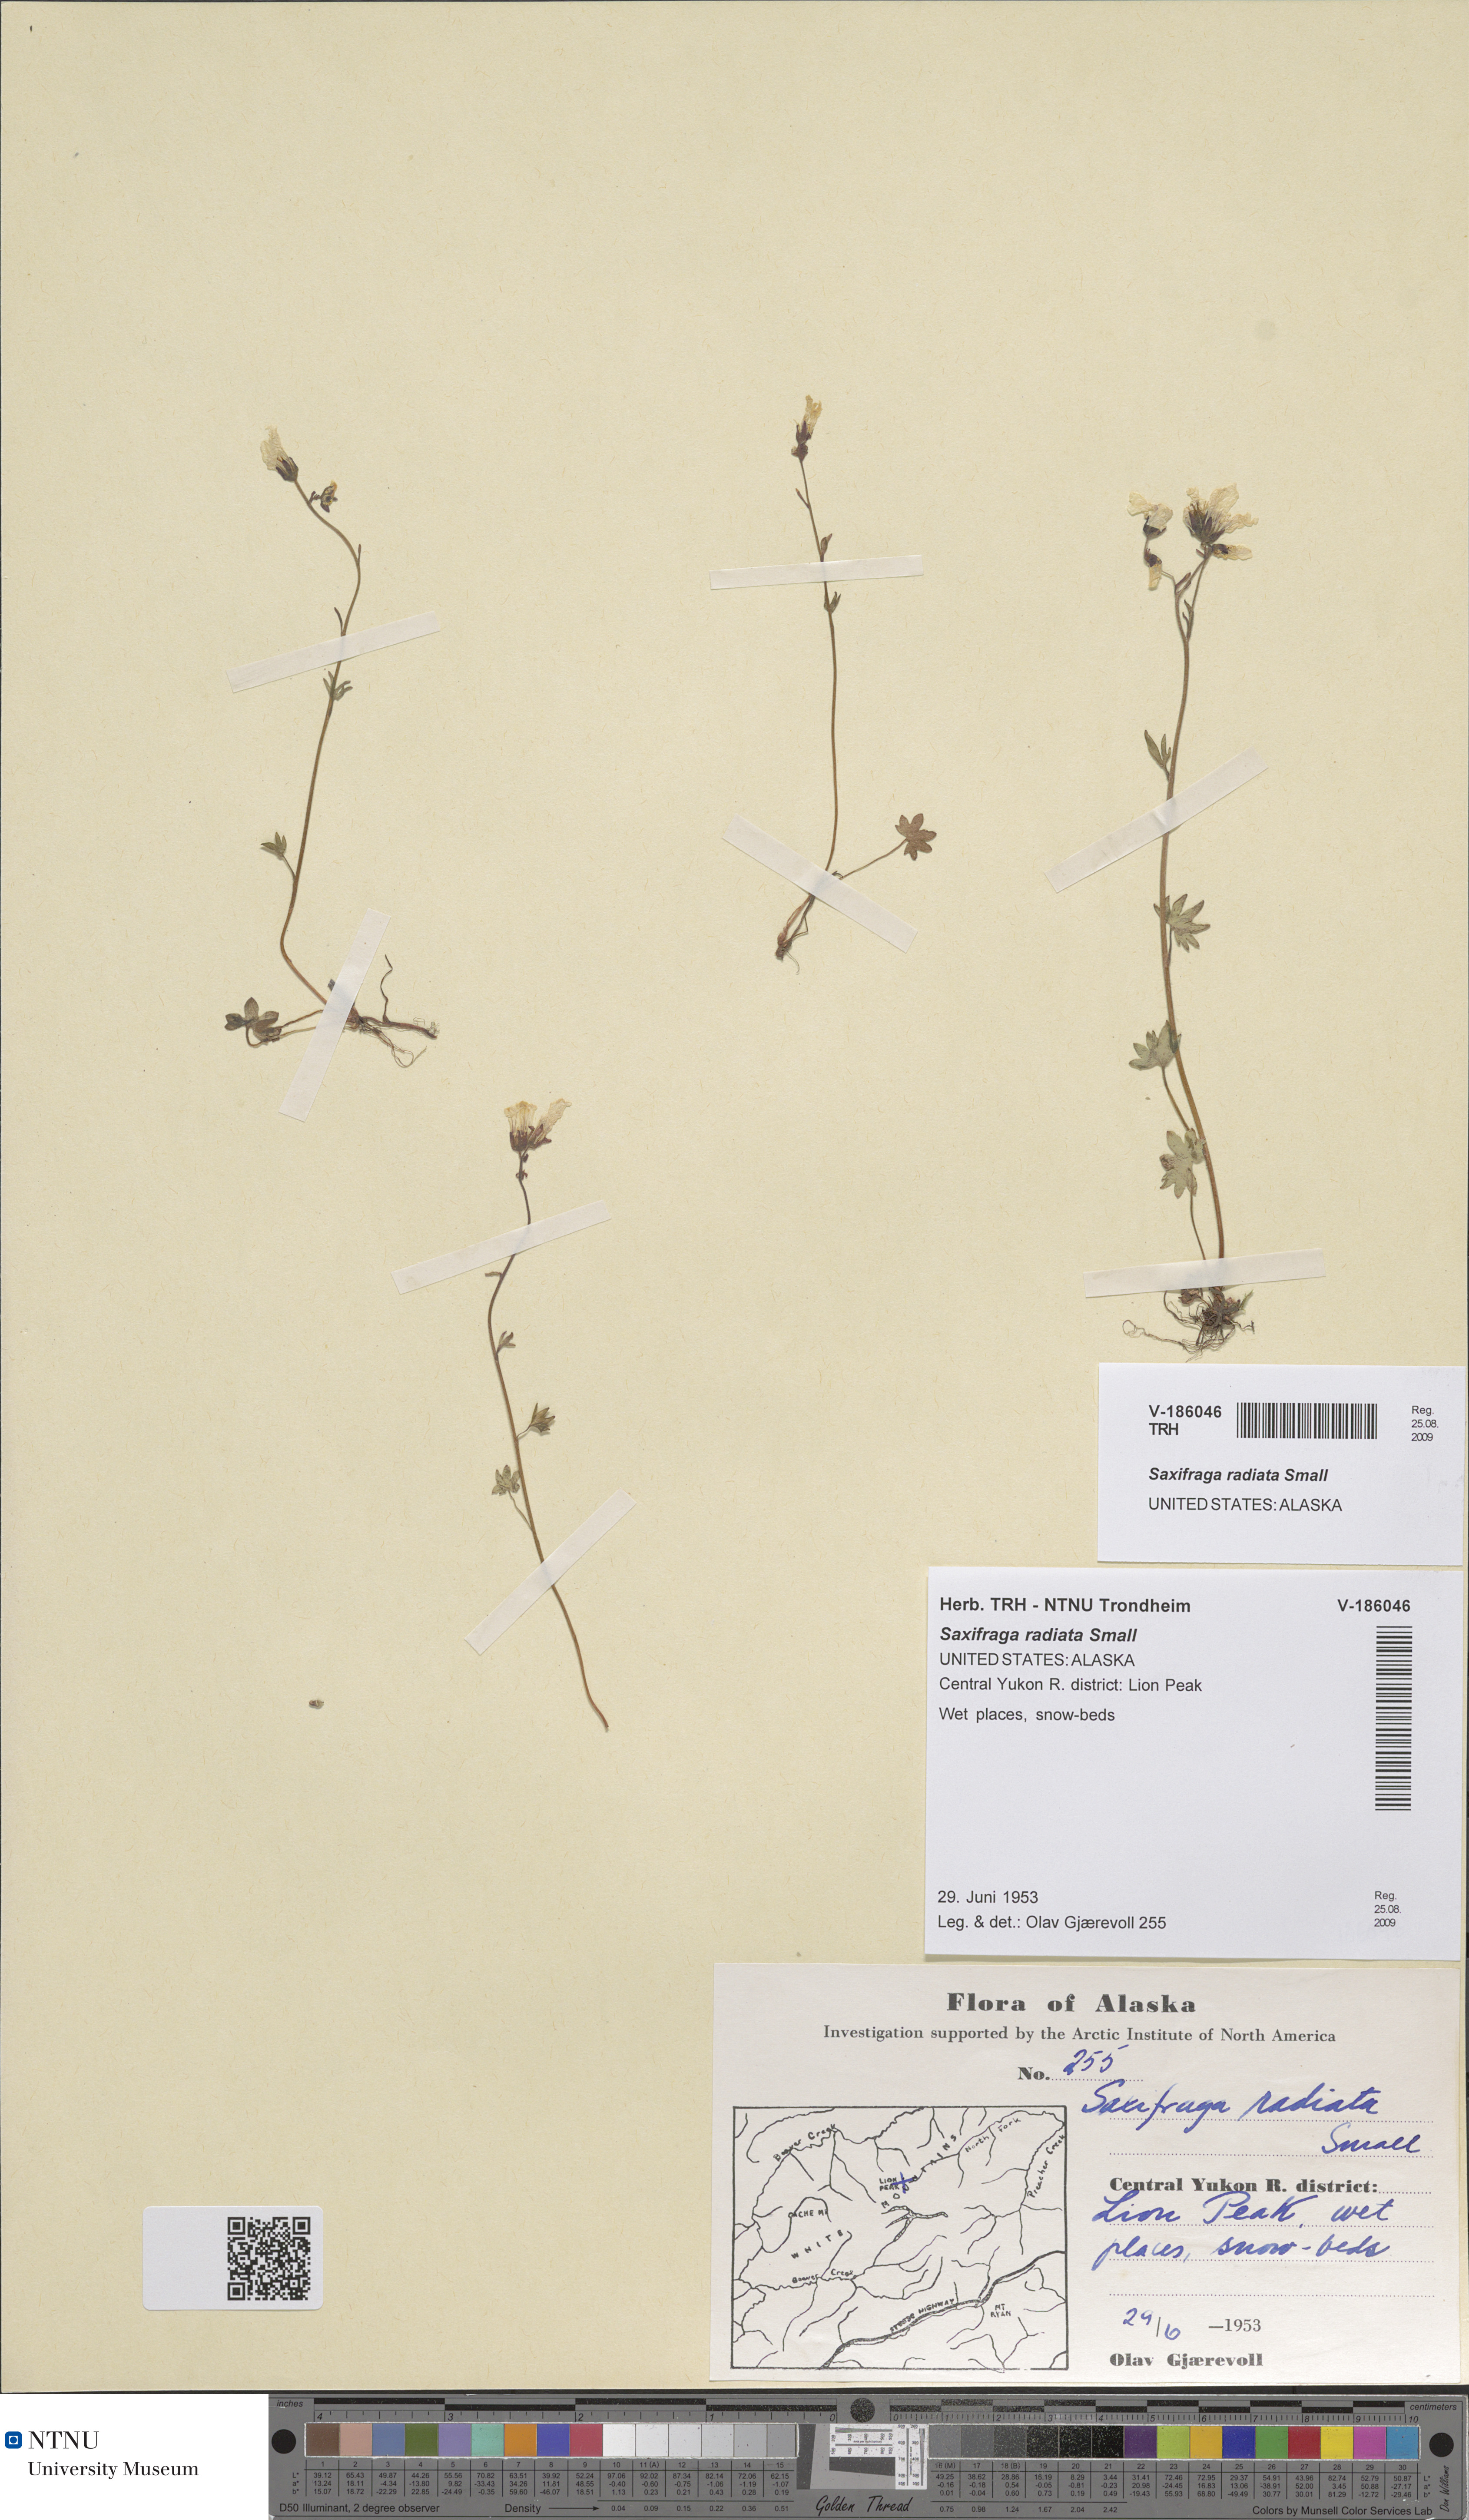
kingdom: Plantae
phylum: Tracheophyta
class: Magnoliopsida
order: Saxifragales
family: Saxifragaceae
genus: Saxifraga
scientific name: Saxifraga sibirica
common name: Siberian saxifrage
